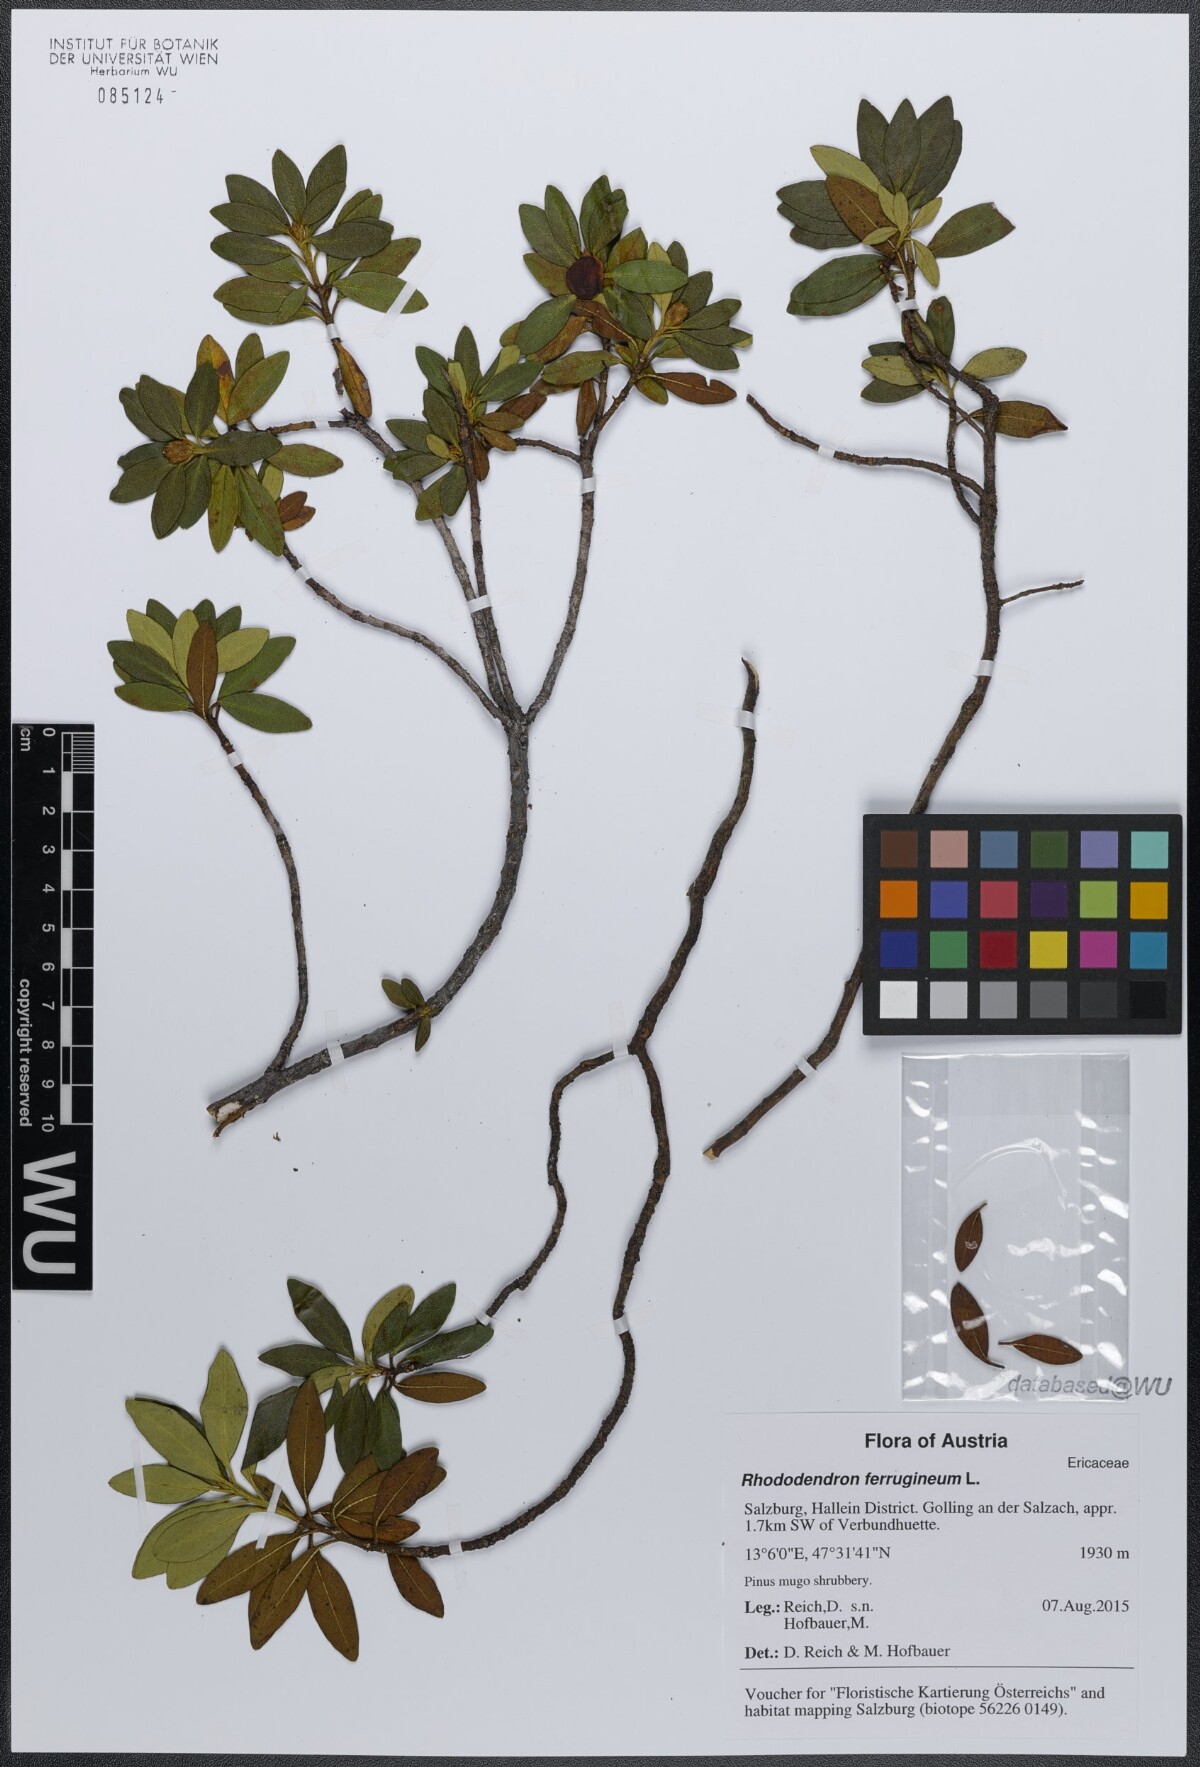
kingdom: Plantae
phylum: Tracheophyta
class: Magnoliopsida
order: Ericales
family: Ericaceae
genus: Rhododendron
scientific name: Rhododendron ferrugineum
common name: Alpenrose
